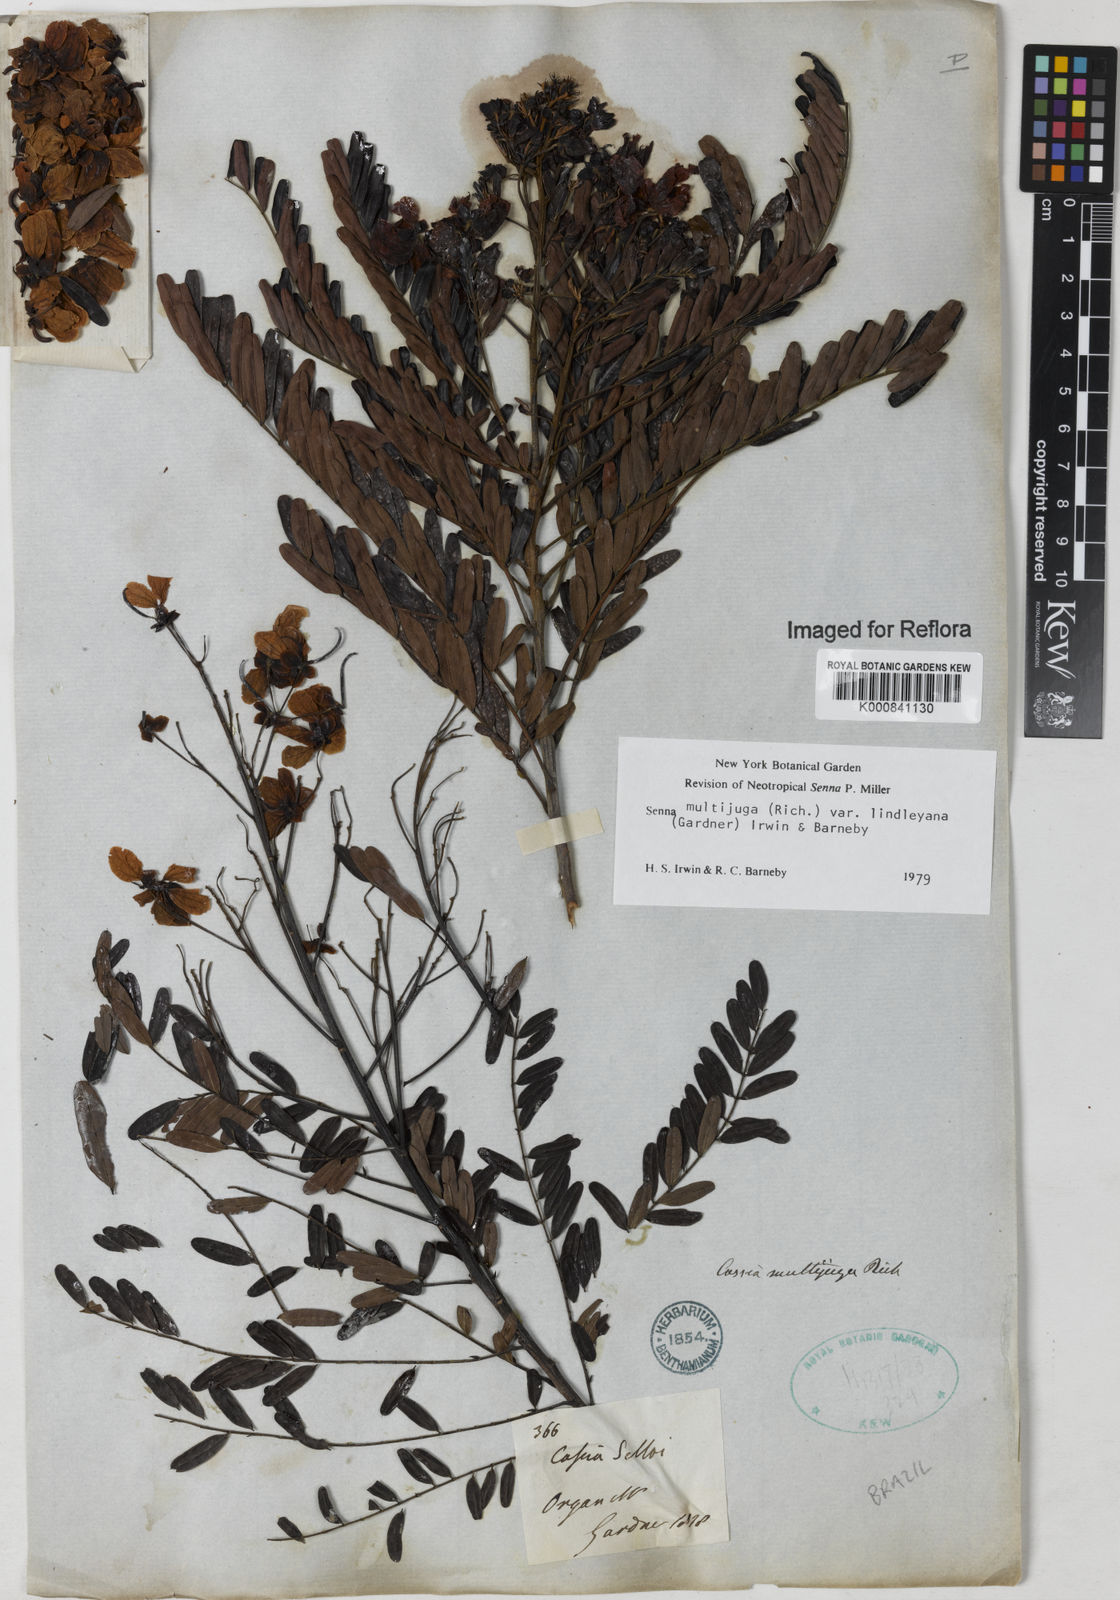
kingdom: Plantae
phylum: Tracheophyta
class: Magnoliopsida
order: Fabales
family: Fabaceae
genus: Senna
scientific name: Senna multijuga
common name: False sicklepod
